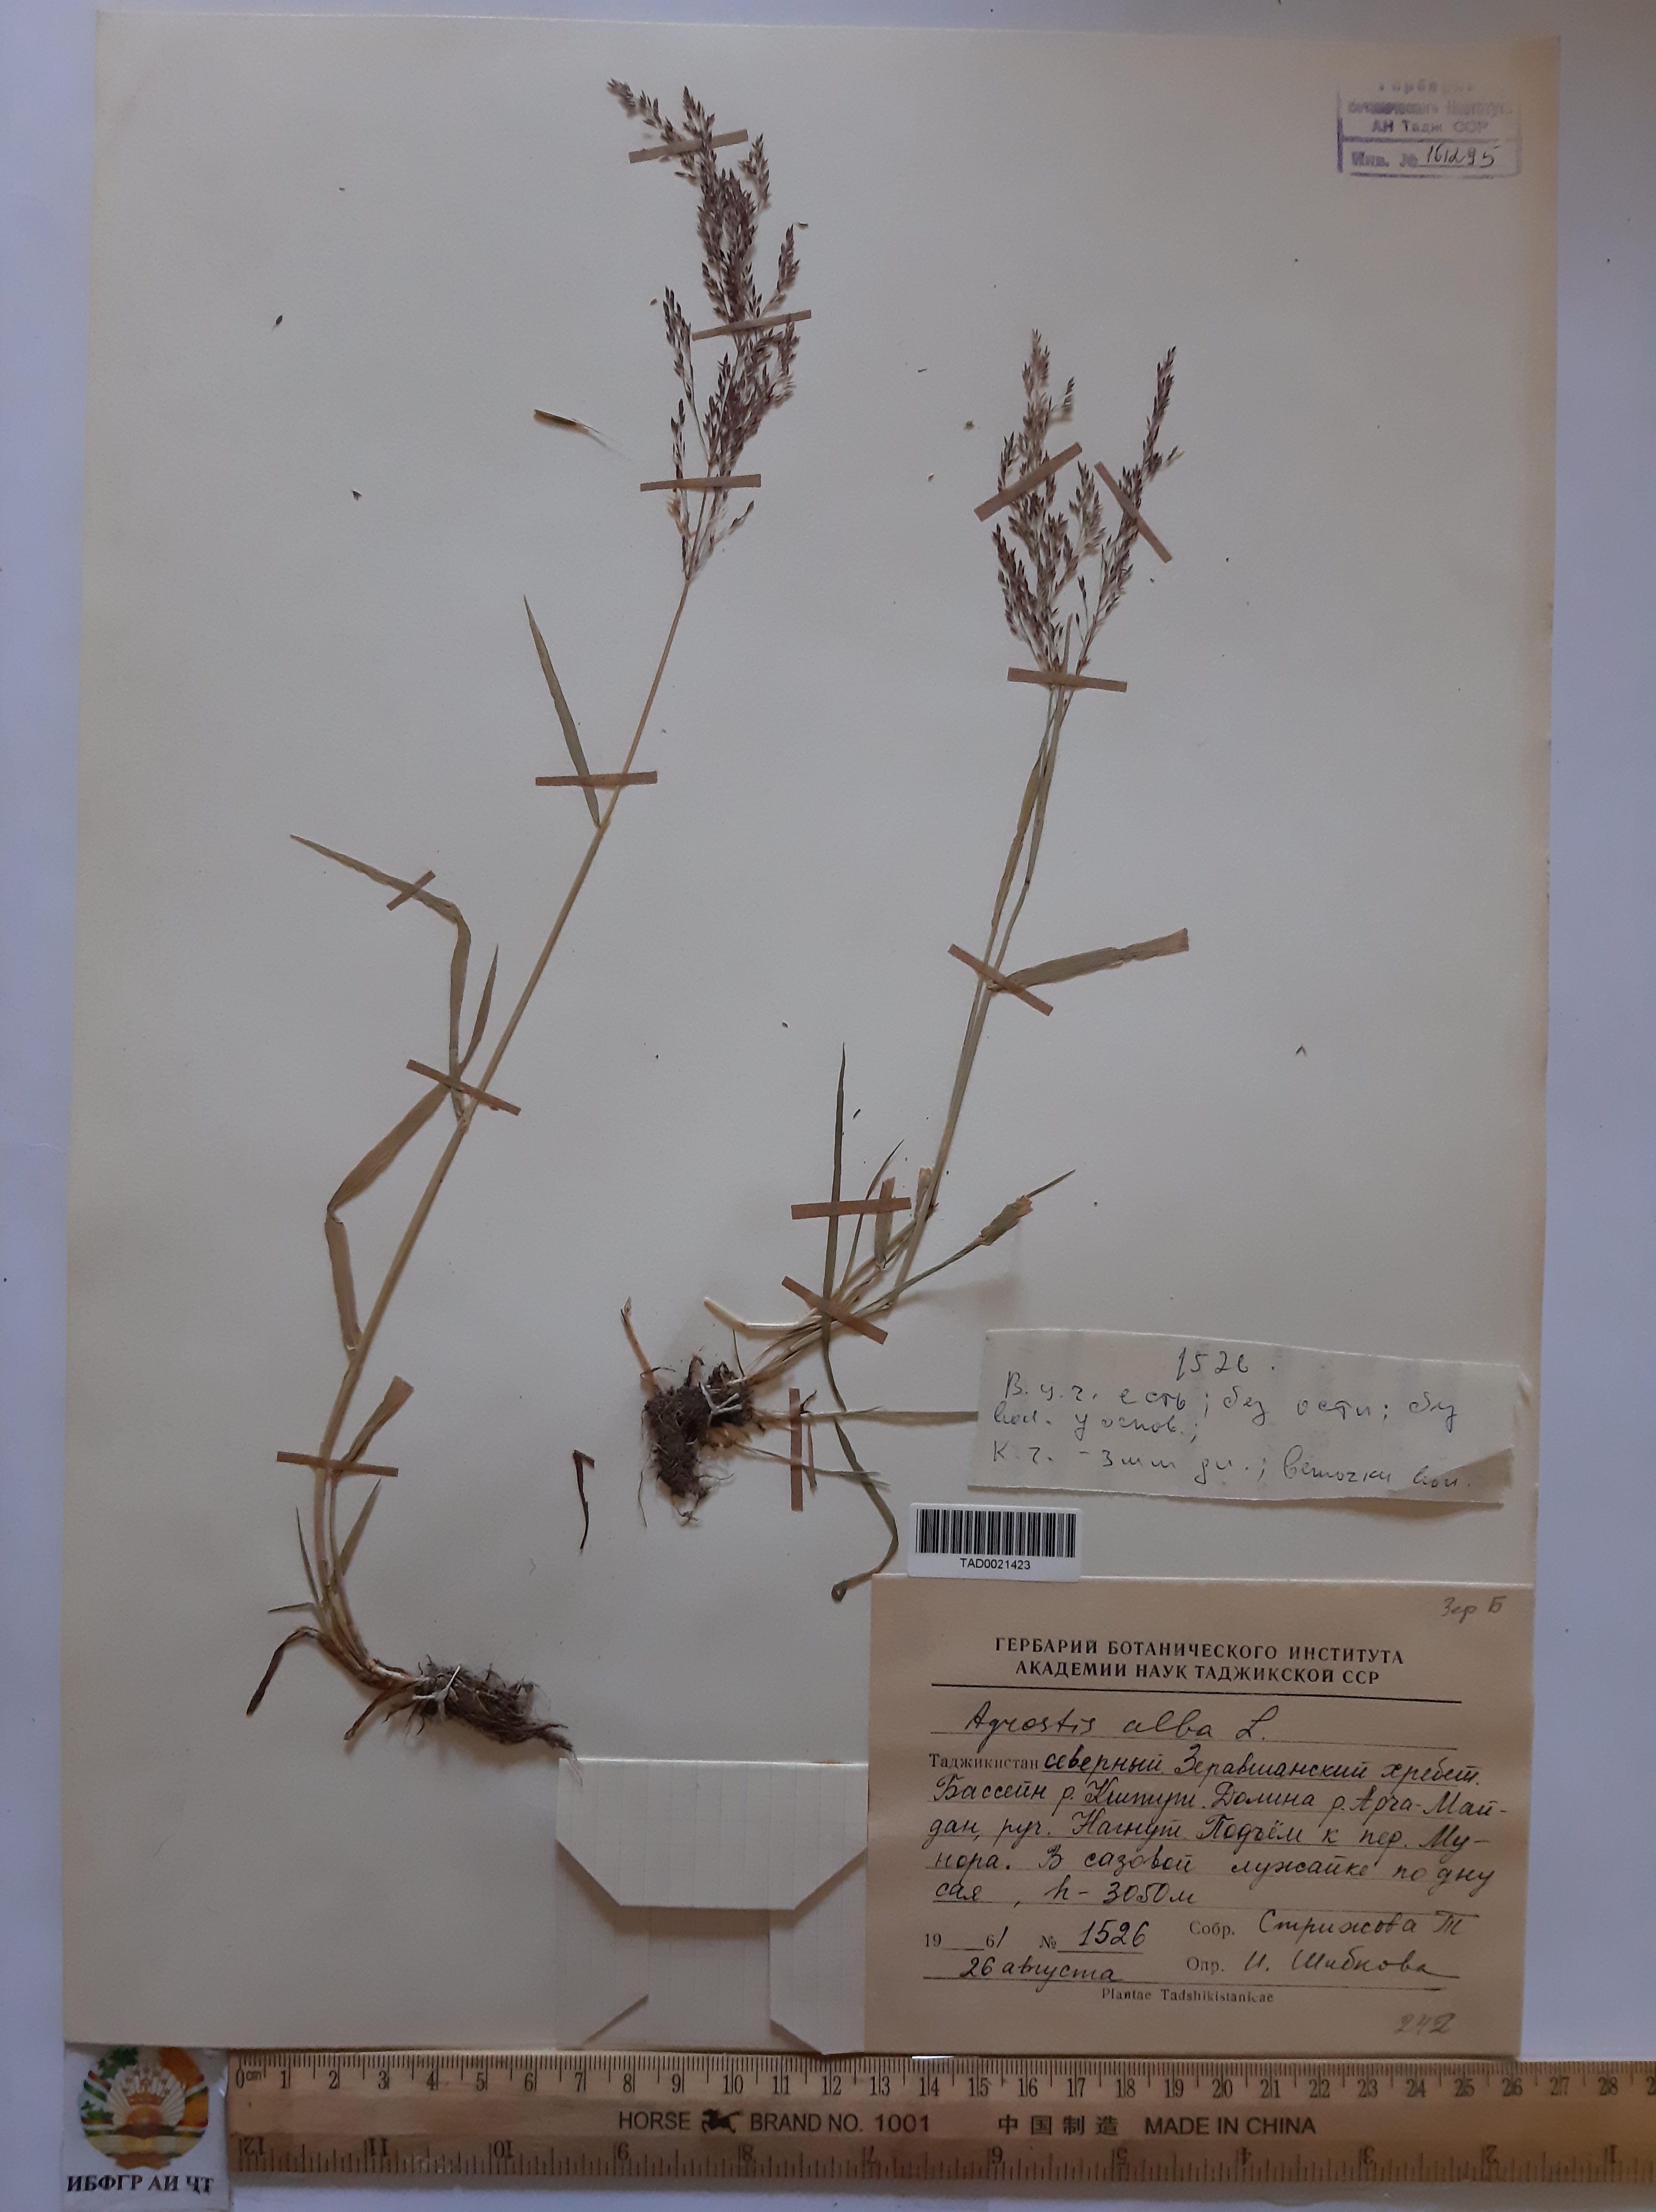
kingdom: Plantae
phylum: Tracheophyta
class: Liliopsida
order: Poales
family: Poaceae
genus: Poa
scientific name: Poa nemoralis
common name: Wood bluegrass
